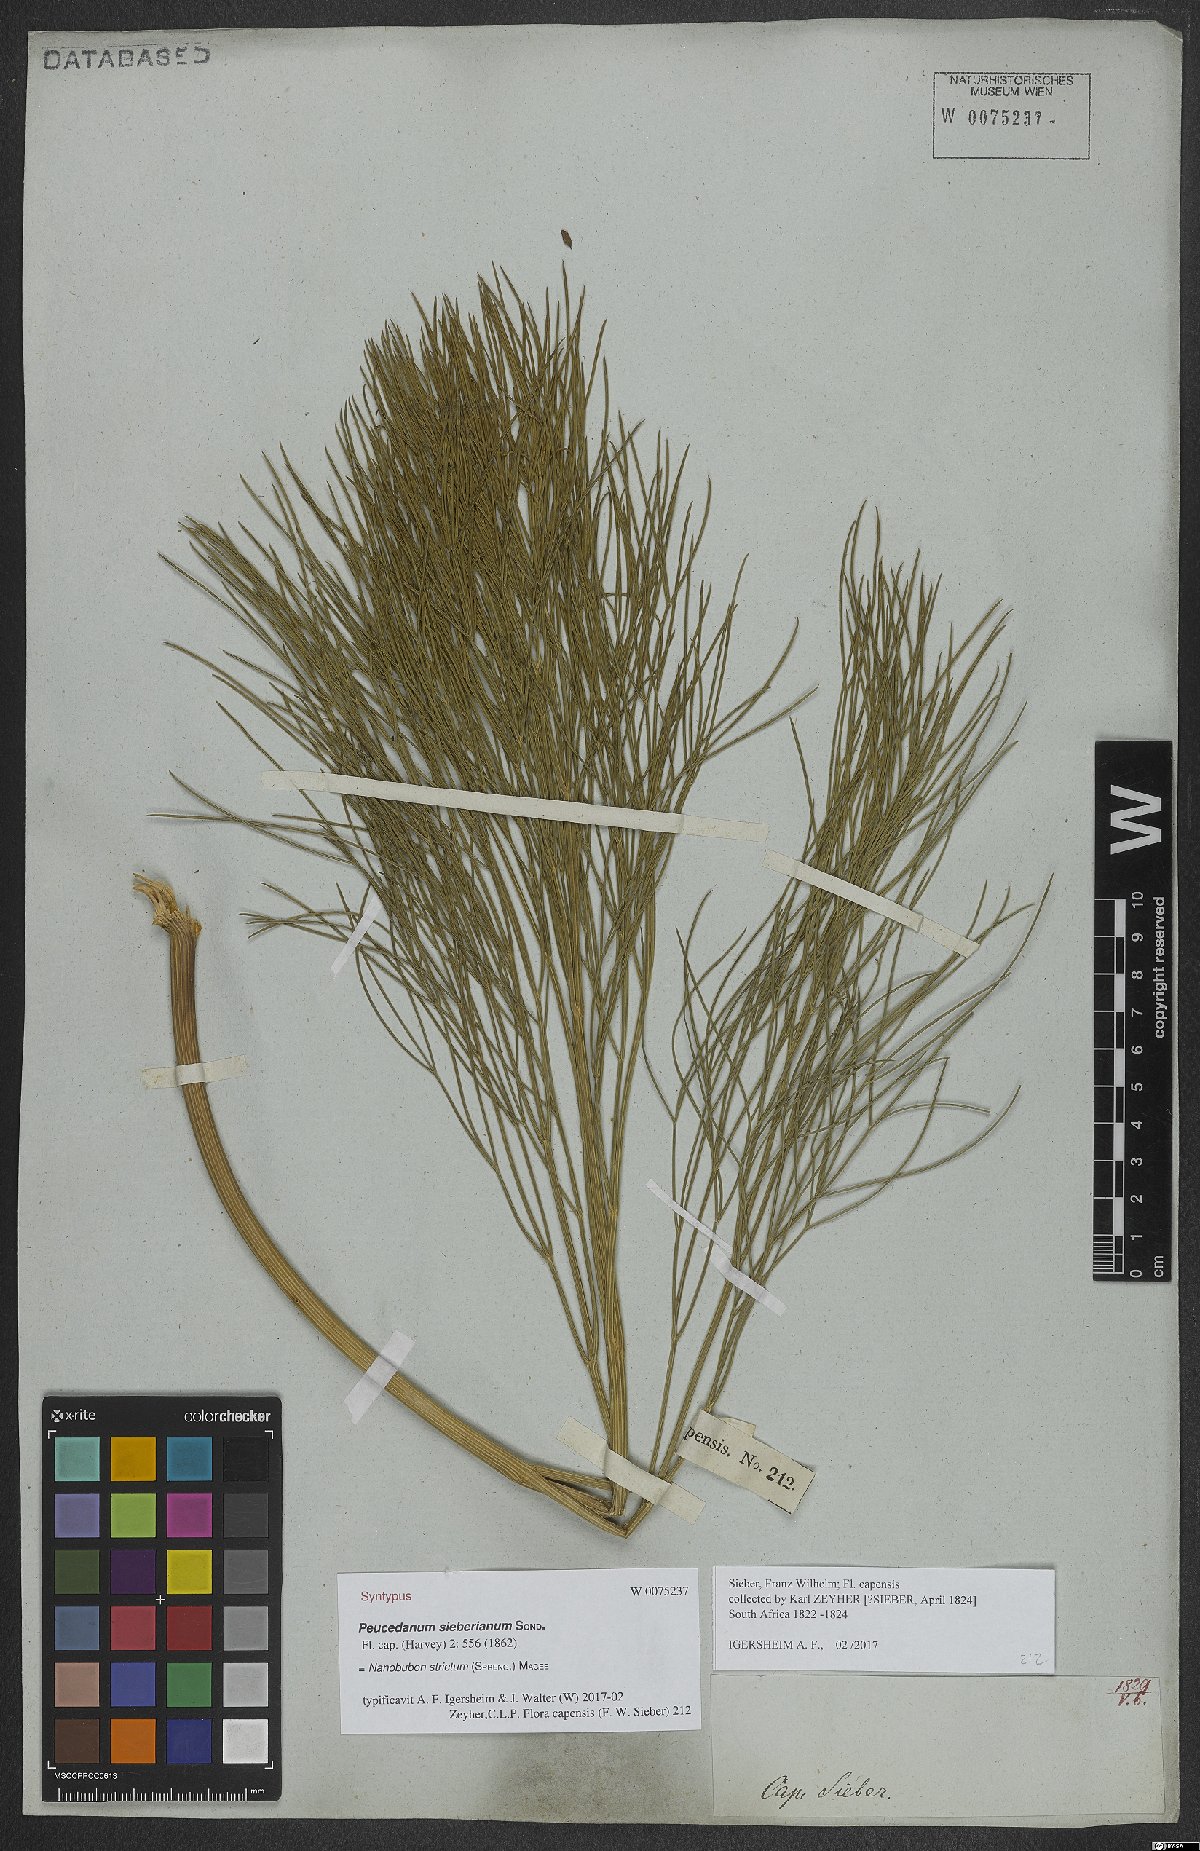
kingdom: Plantae
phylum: Tracheophyta
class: Magnoliopsida
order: Apiales
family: Apiaceae
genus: Nanobubon
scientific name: Nanobubon strictum
